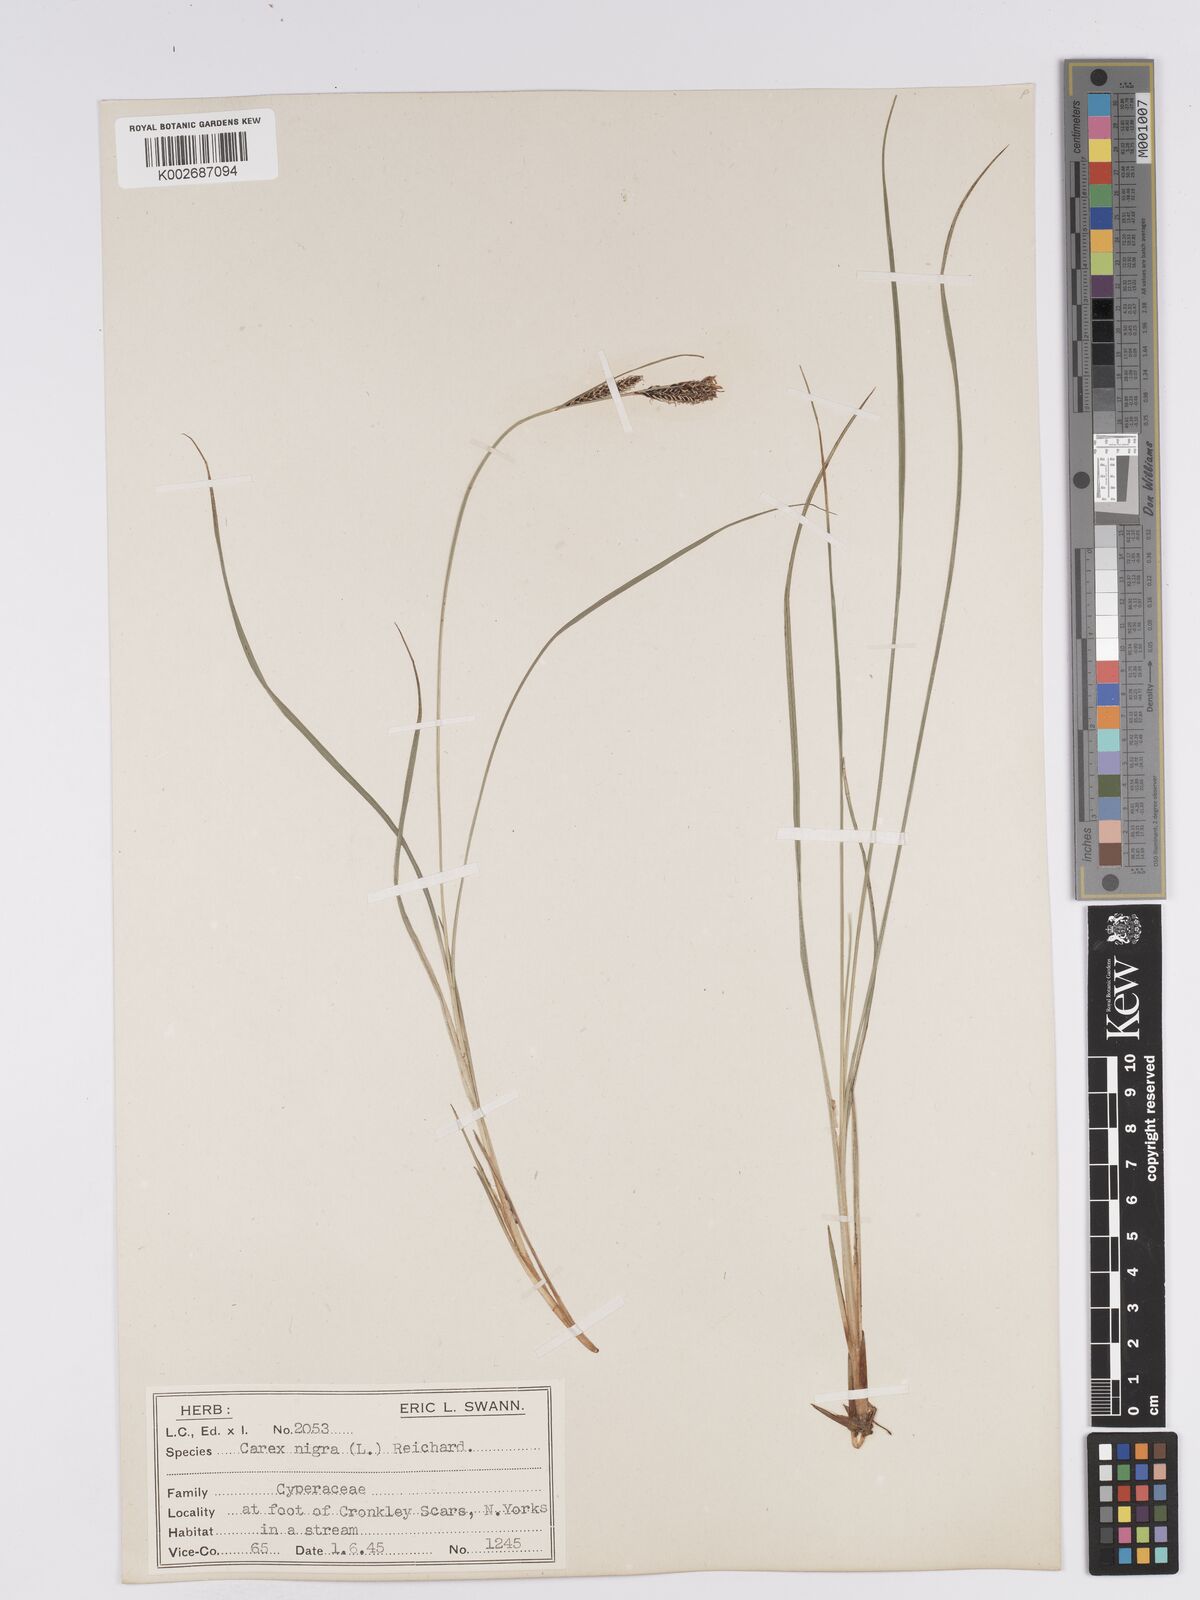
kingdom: Plantae
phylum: Tracheophyta
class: Liliopsida
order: Poales
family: Cyperaceae
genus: Carex
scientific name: Carex nigra
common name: Common sedge
